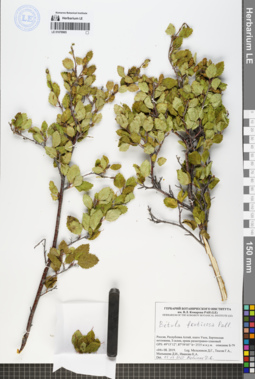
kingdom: Plantae
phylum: Tracheophyta
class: Magnoliopsida
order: Fagales
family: Betulaceae
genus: Betula
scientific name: Betula fruticosa
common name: Japanese bog birch
